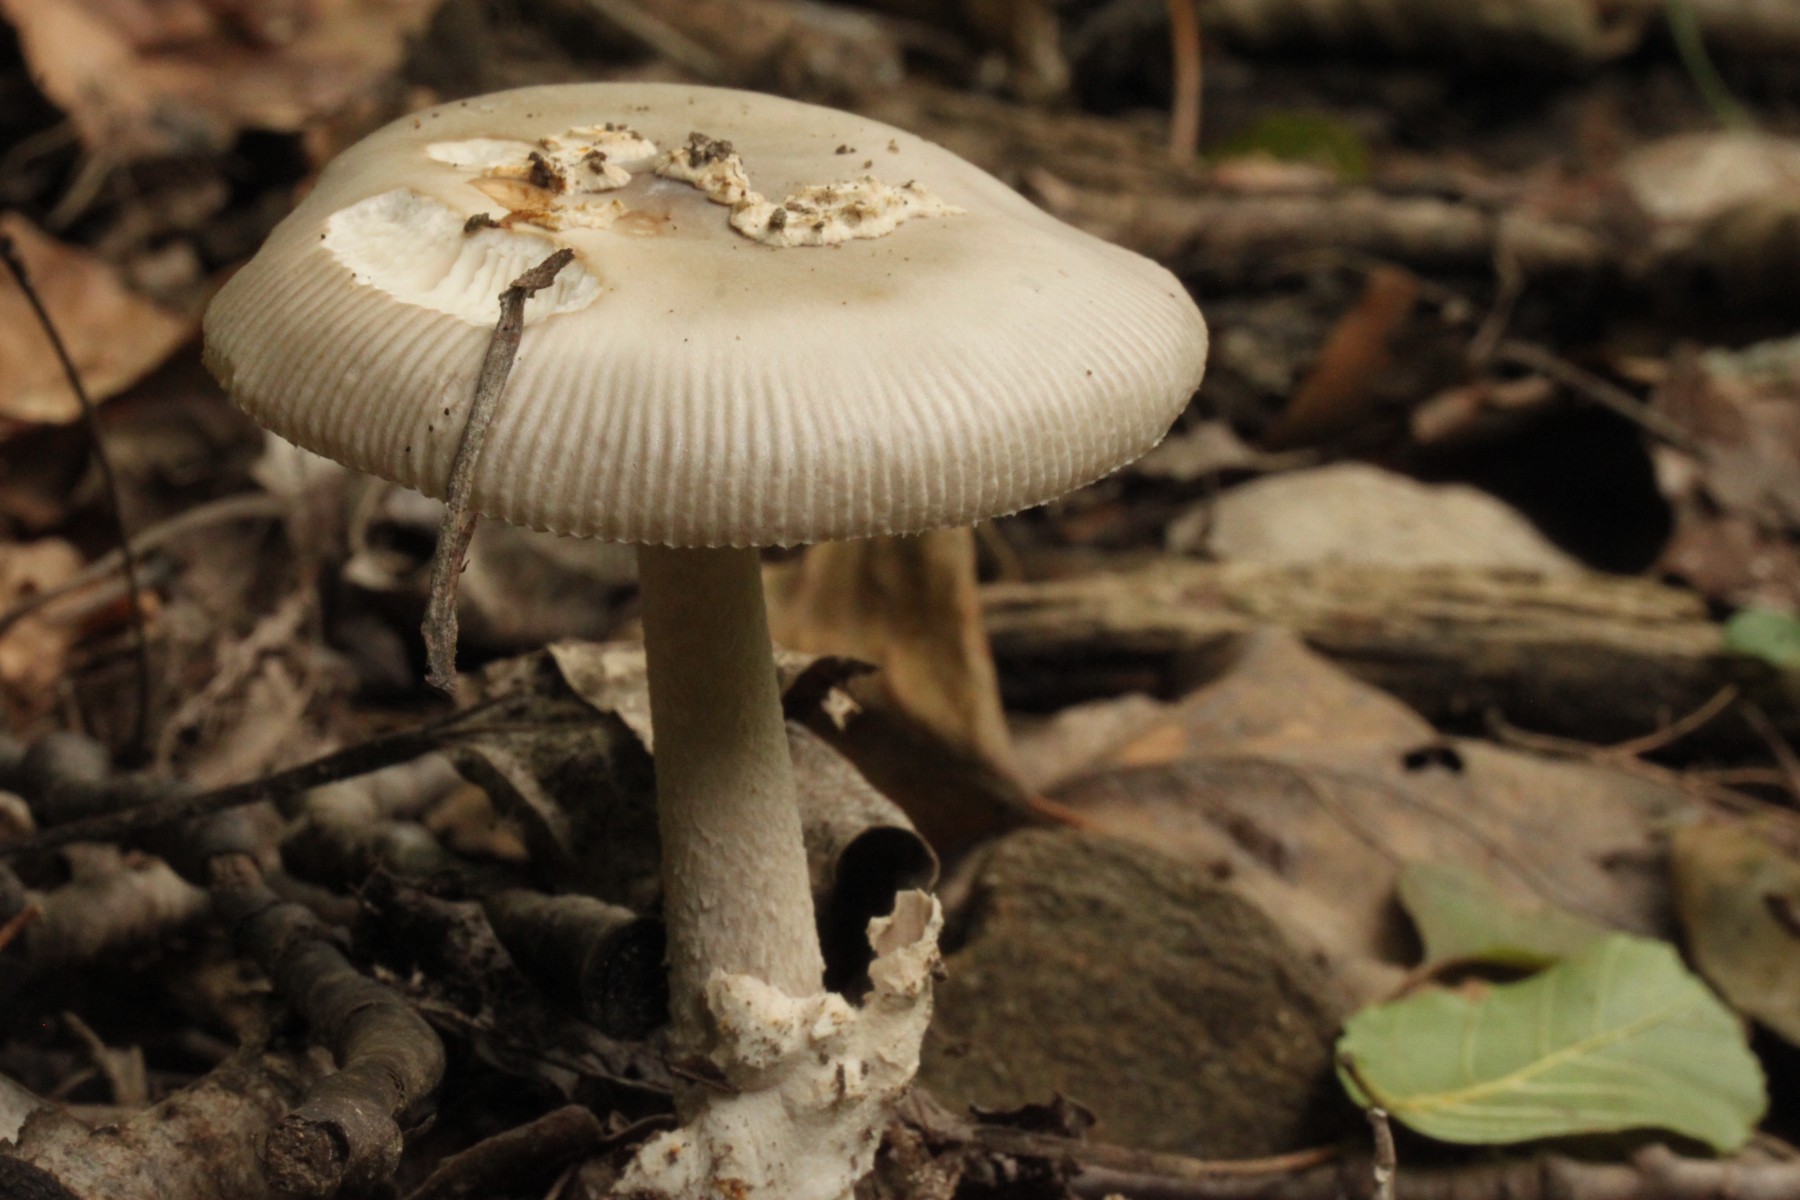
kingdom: Fungi
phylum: Basidiomycota
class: Agaricomycetes
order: Agaricales
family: Amanitaceae
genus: Amanita
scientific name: Amanita
